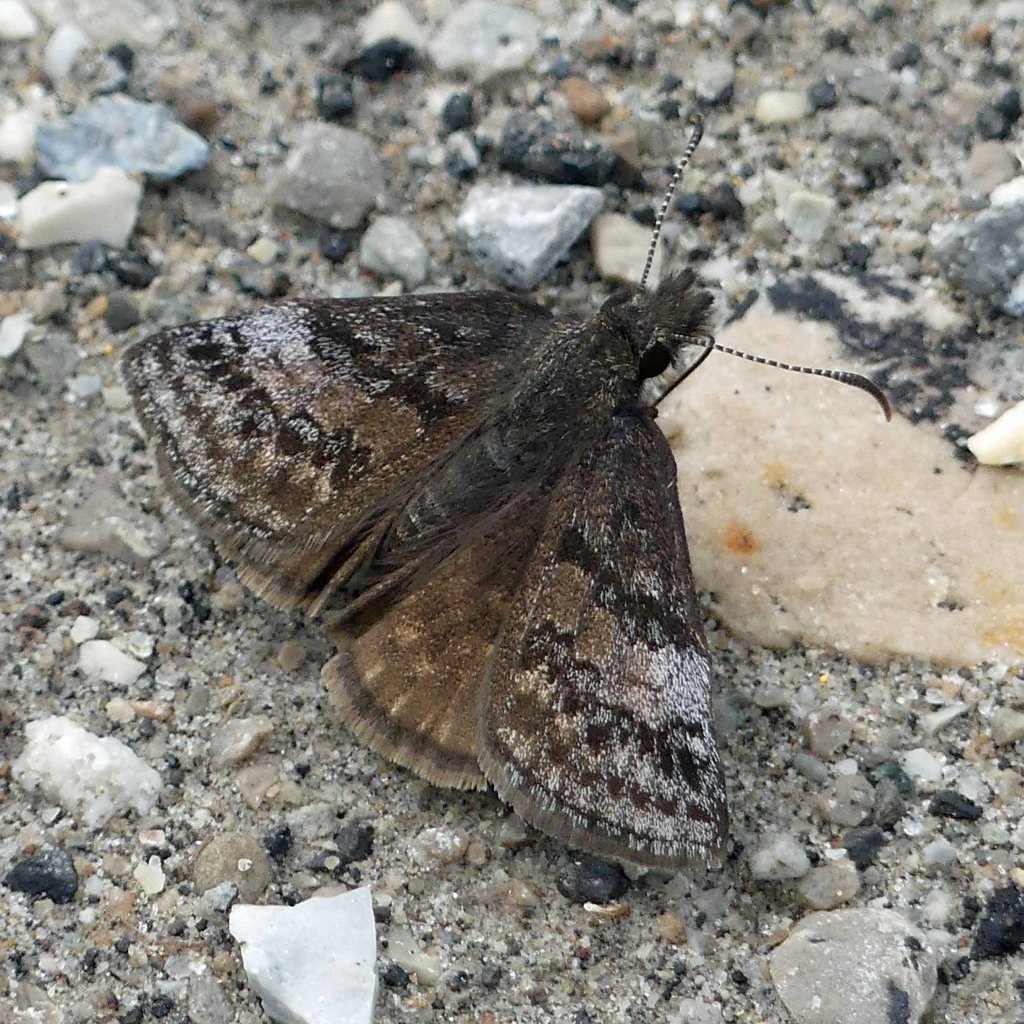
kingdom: Animalia
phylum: Arthropoda
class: Insecta
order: Lepidoptera
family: Hesperiidae
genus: Erynnis
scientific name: Erynnis icelus
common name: Dreamy Duskywing
